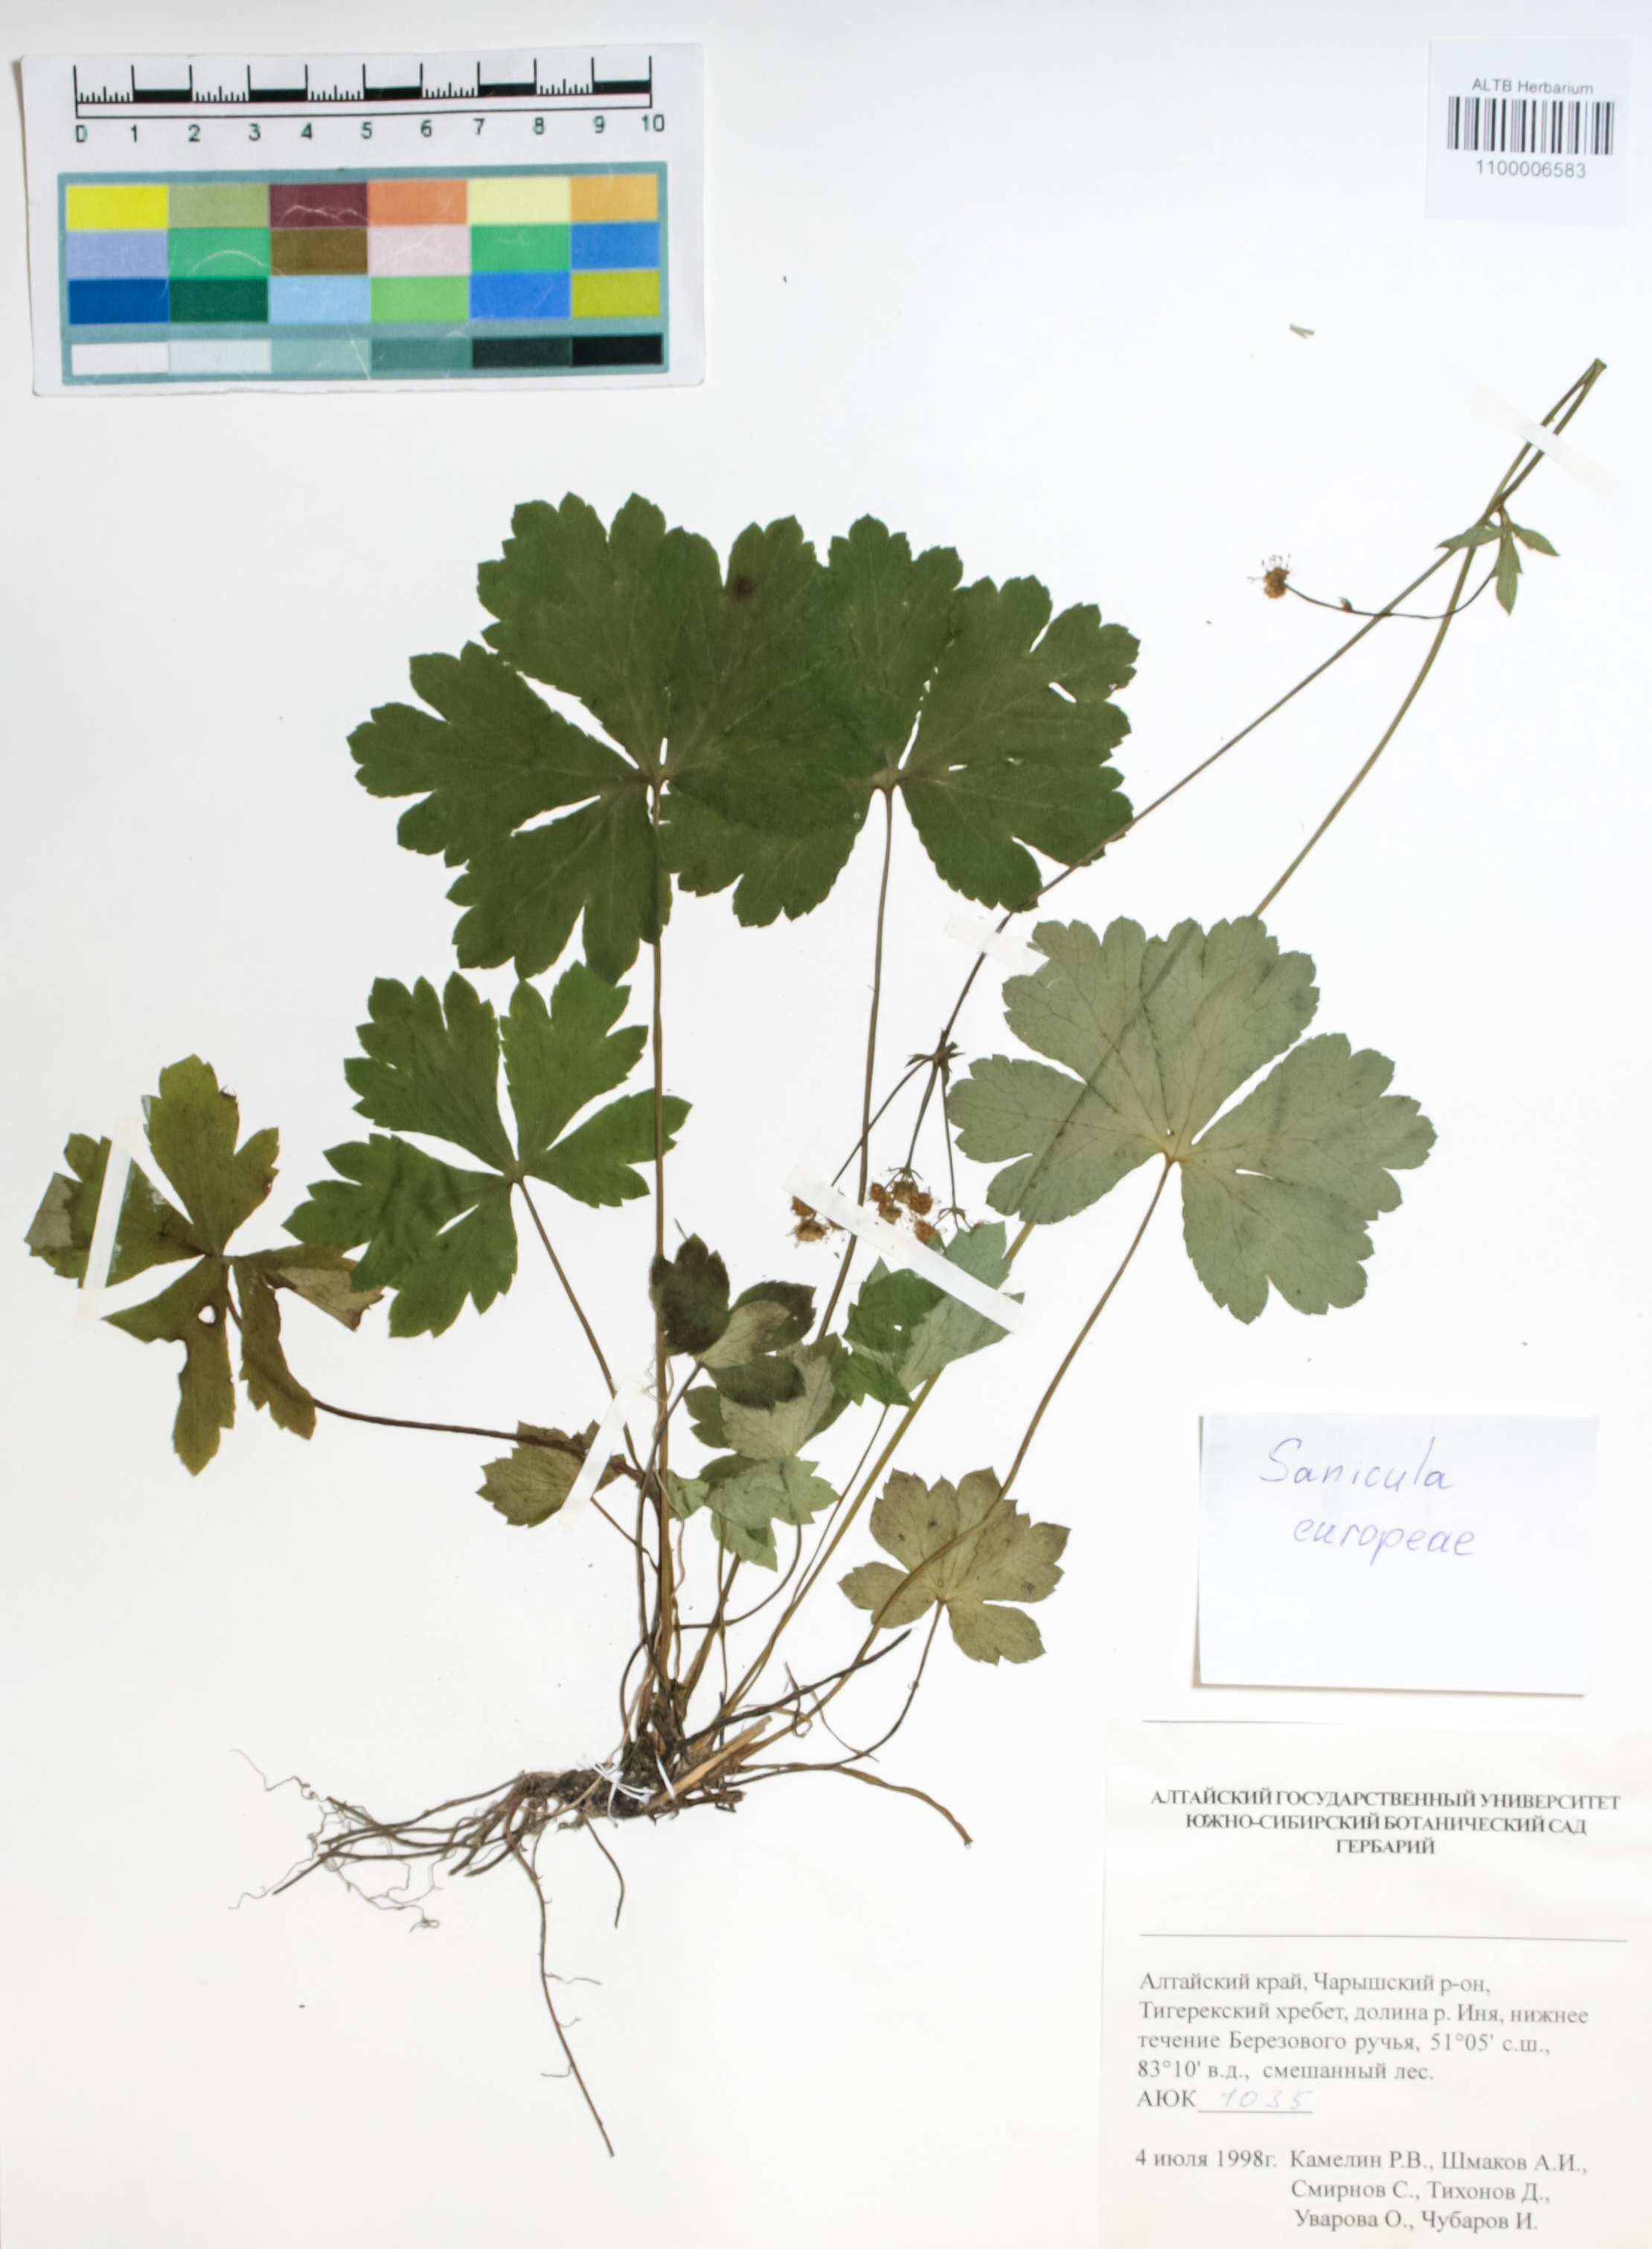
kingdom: Plantae
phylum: Tracheophyta
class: Magnoliopsida
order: Apiales
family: Apiaceae
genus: Sanicula
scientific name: Sanicula europaea
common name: Sanicle
